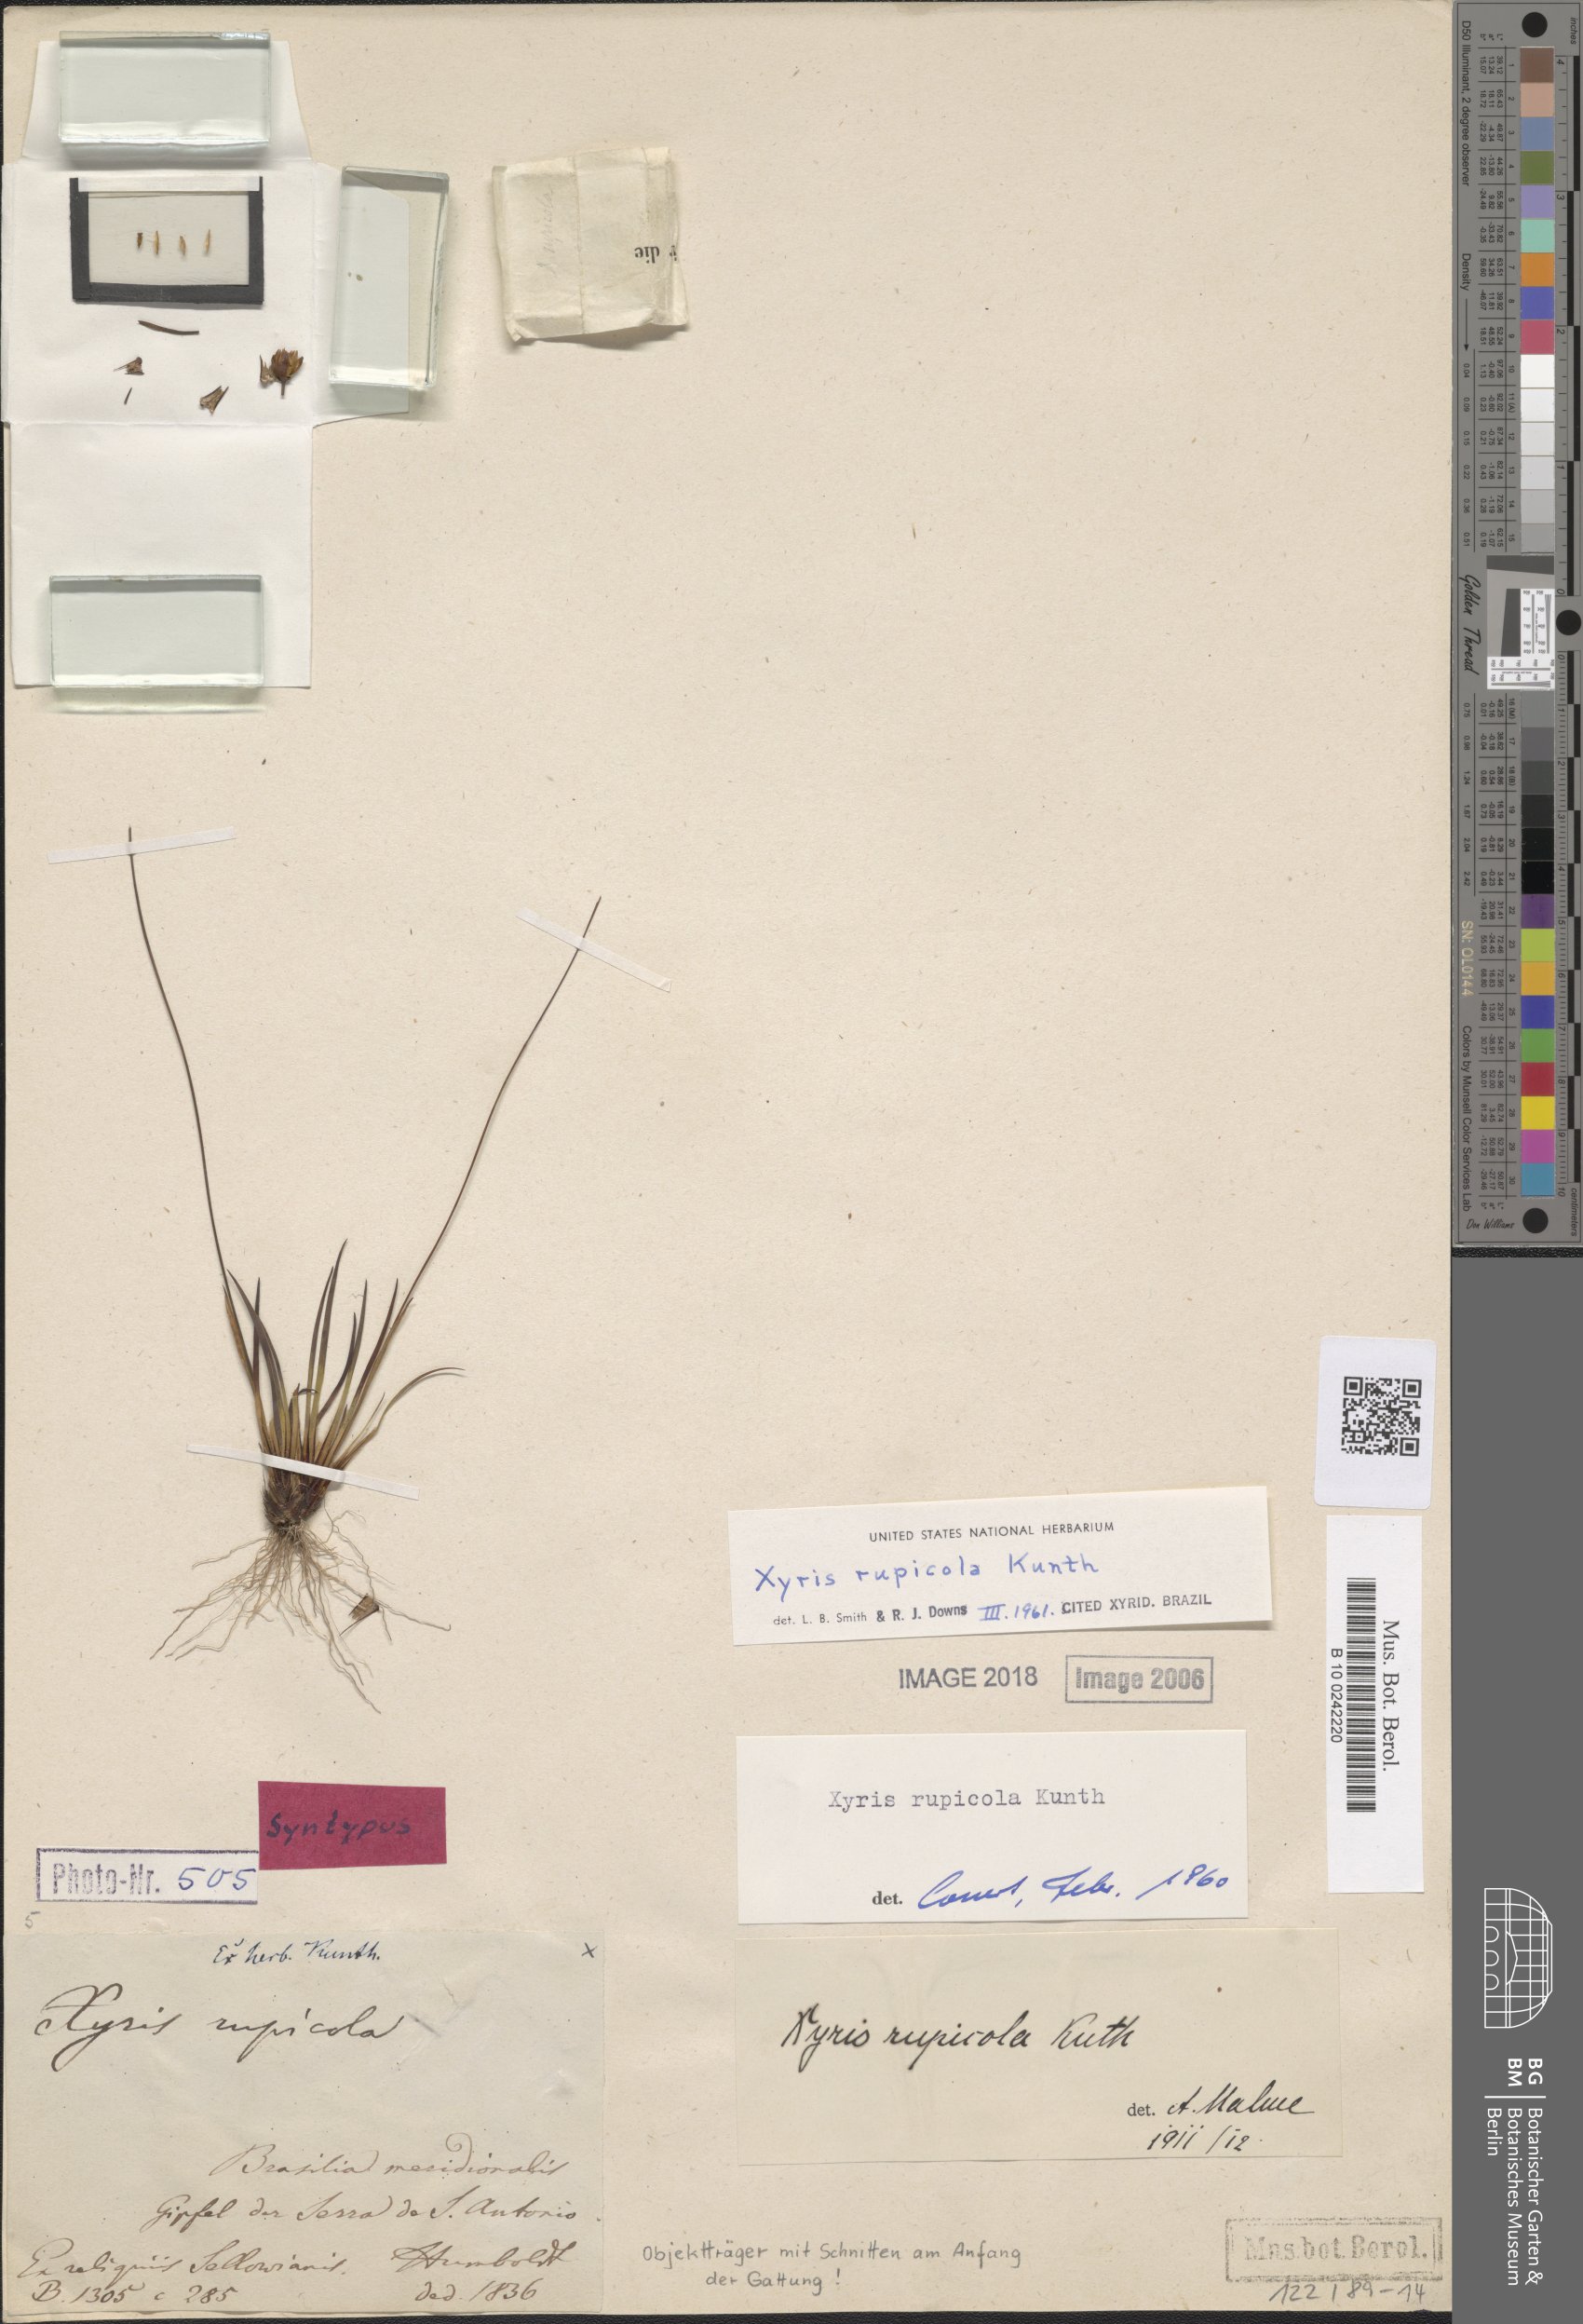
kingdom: Plantae
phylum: Tracheophyta
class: Liliopsida
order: Poales
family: Xyridaceae
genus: Xyris
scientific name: Xyris rupicola
